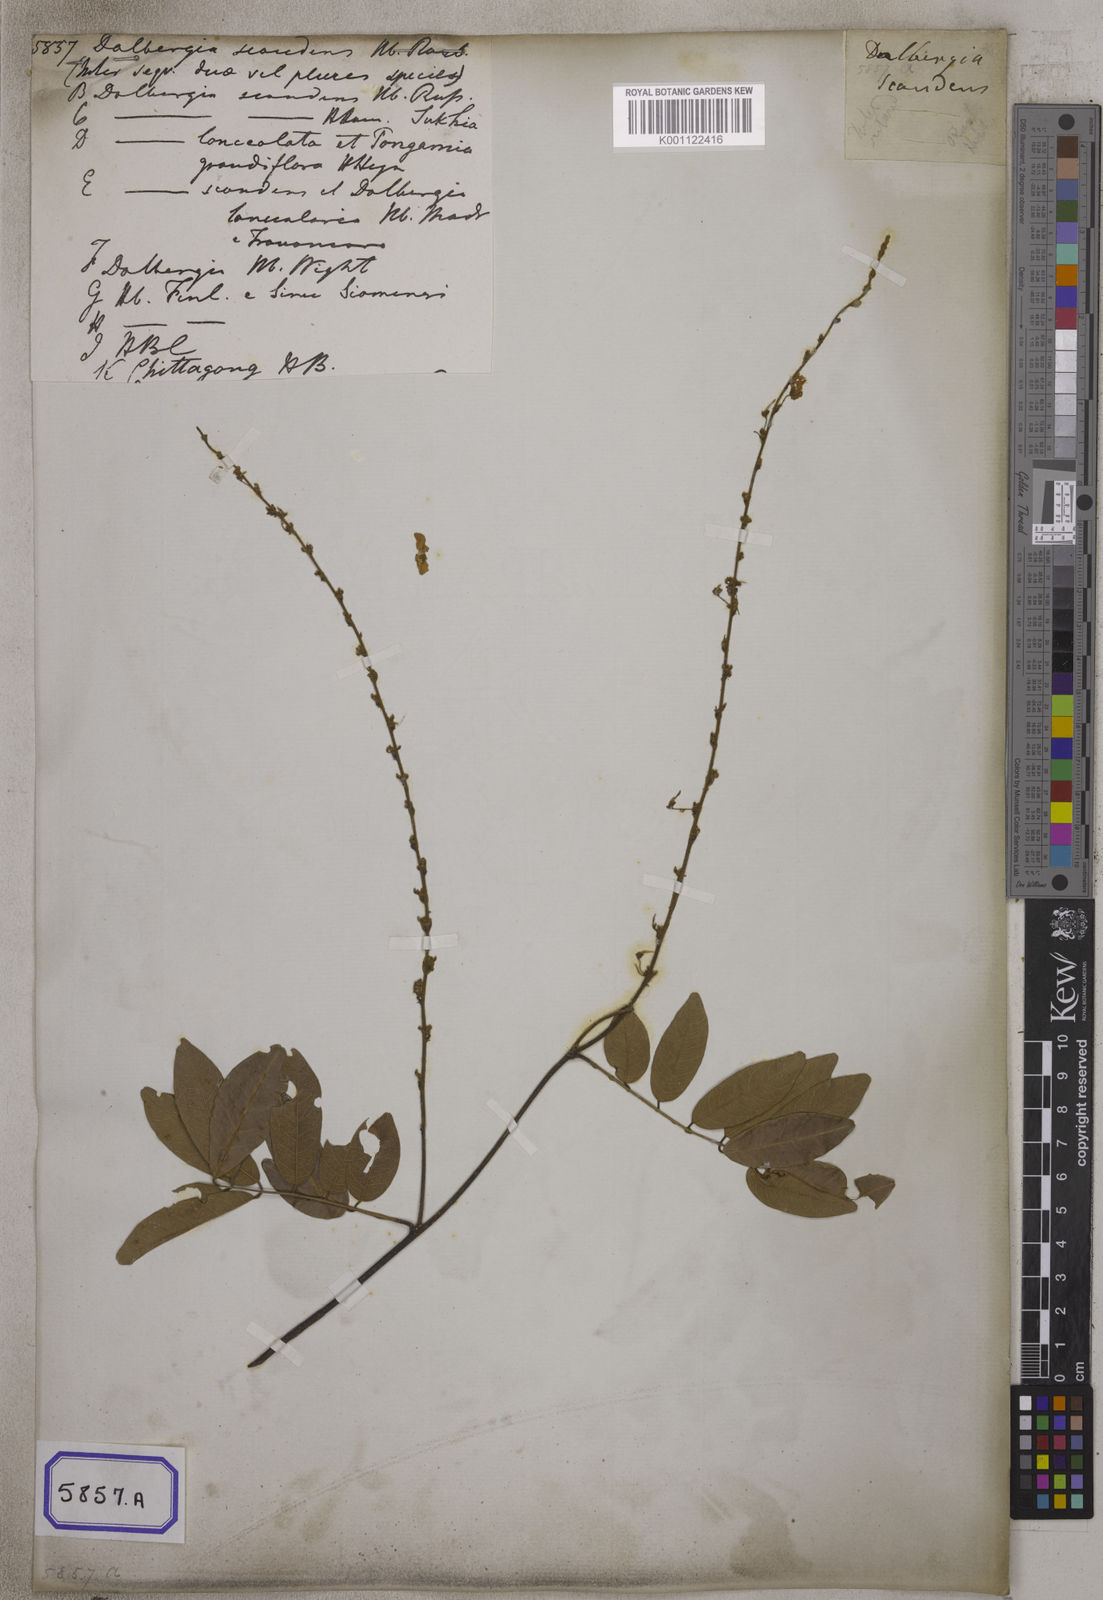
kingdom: Plantae
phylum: Tracheophyta
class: Magnoliopsida
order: Fabales
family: Fabaceae
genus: Brachypterum
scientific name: Brachypterum scandens
